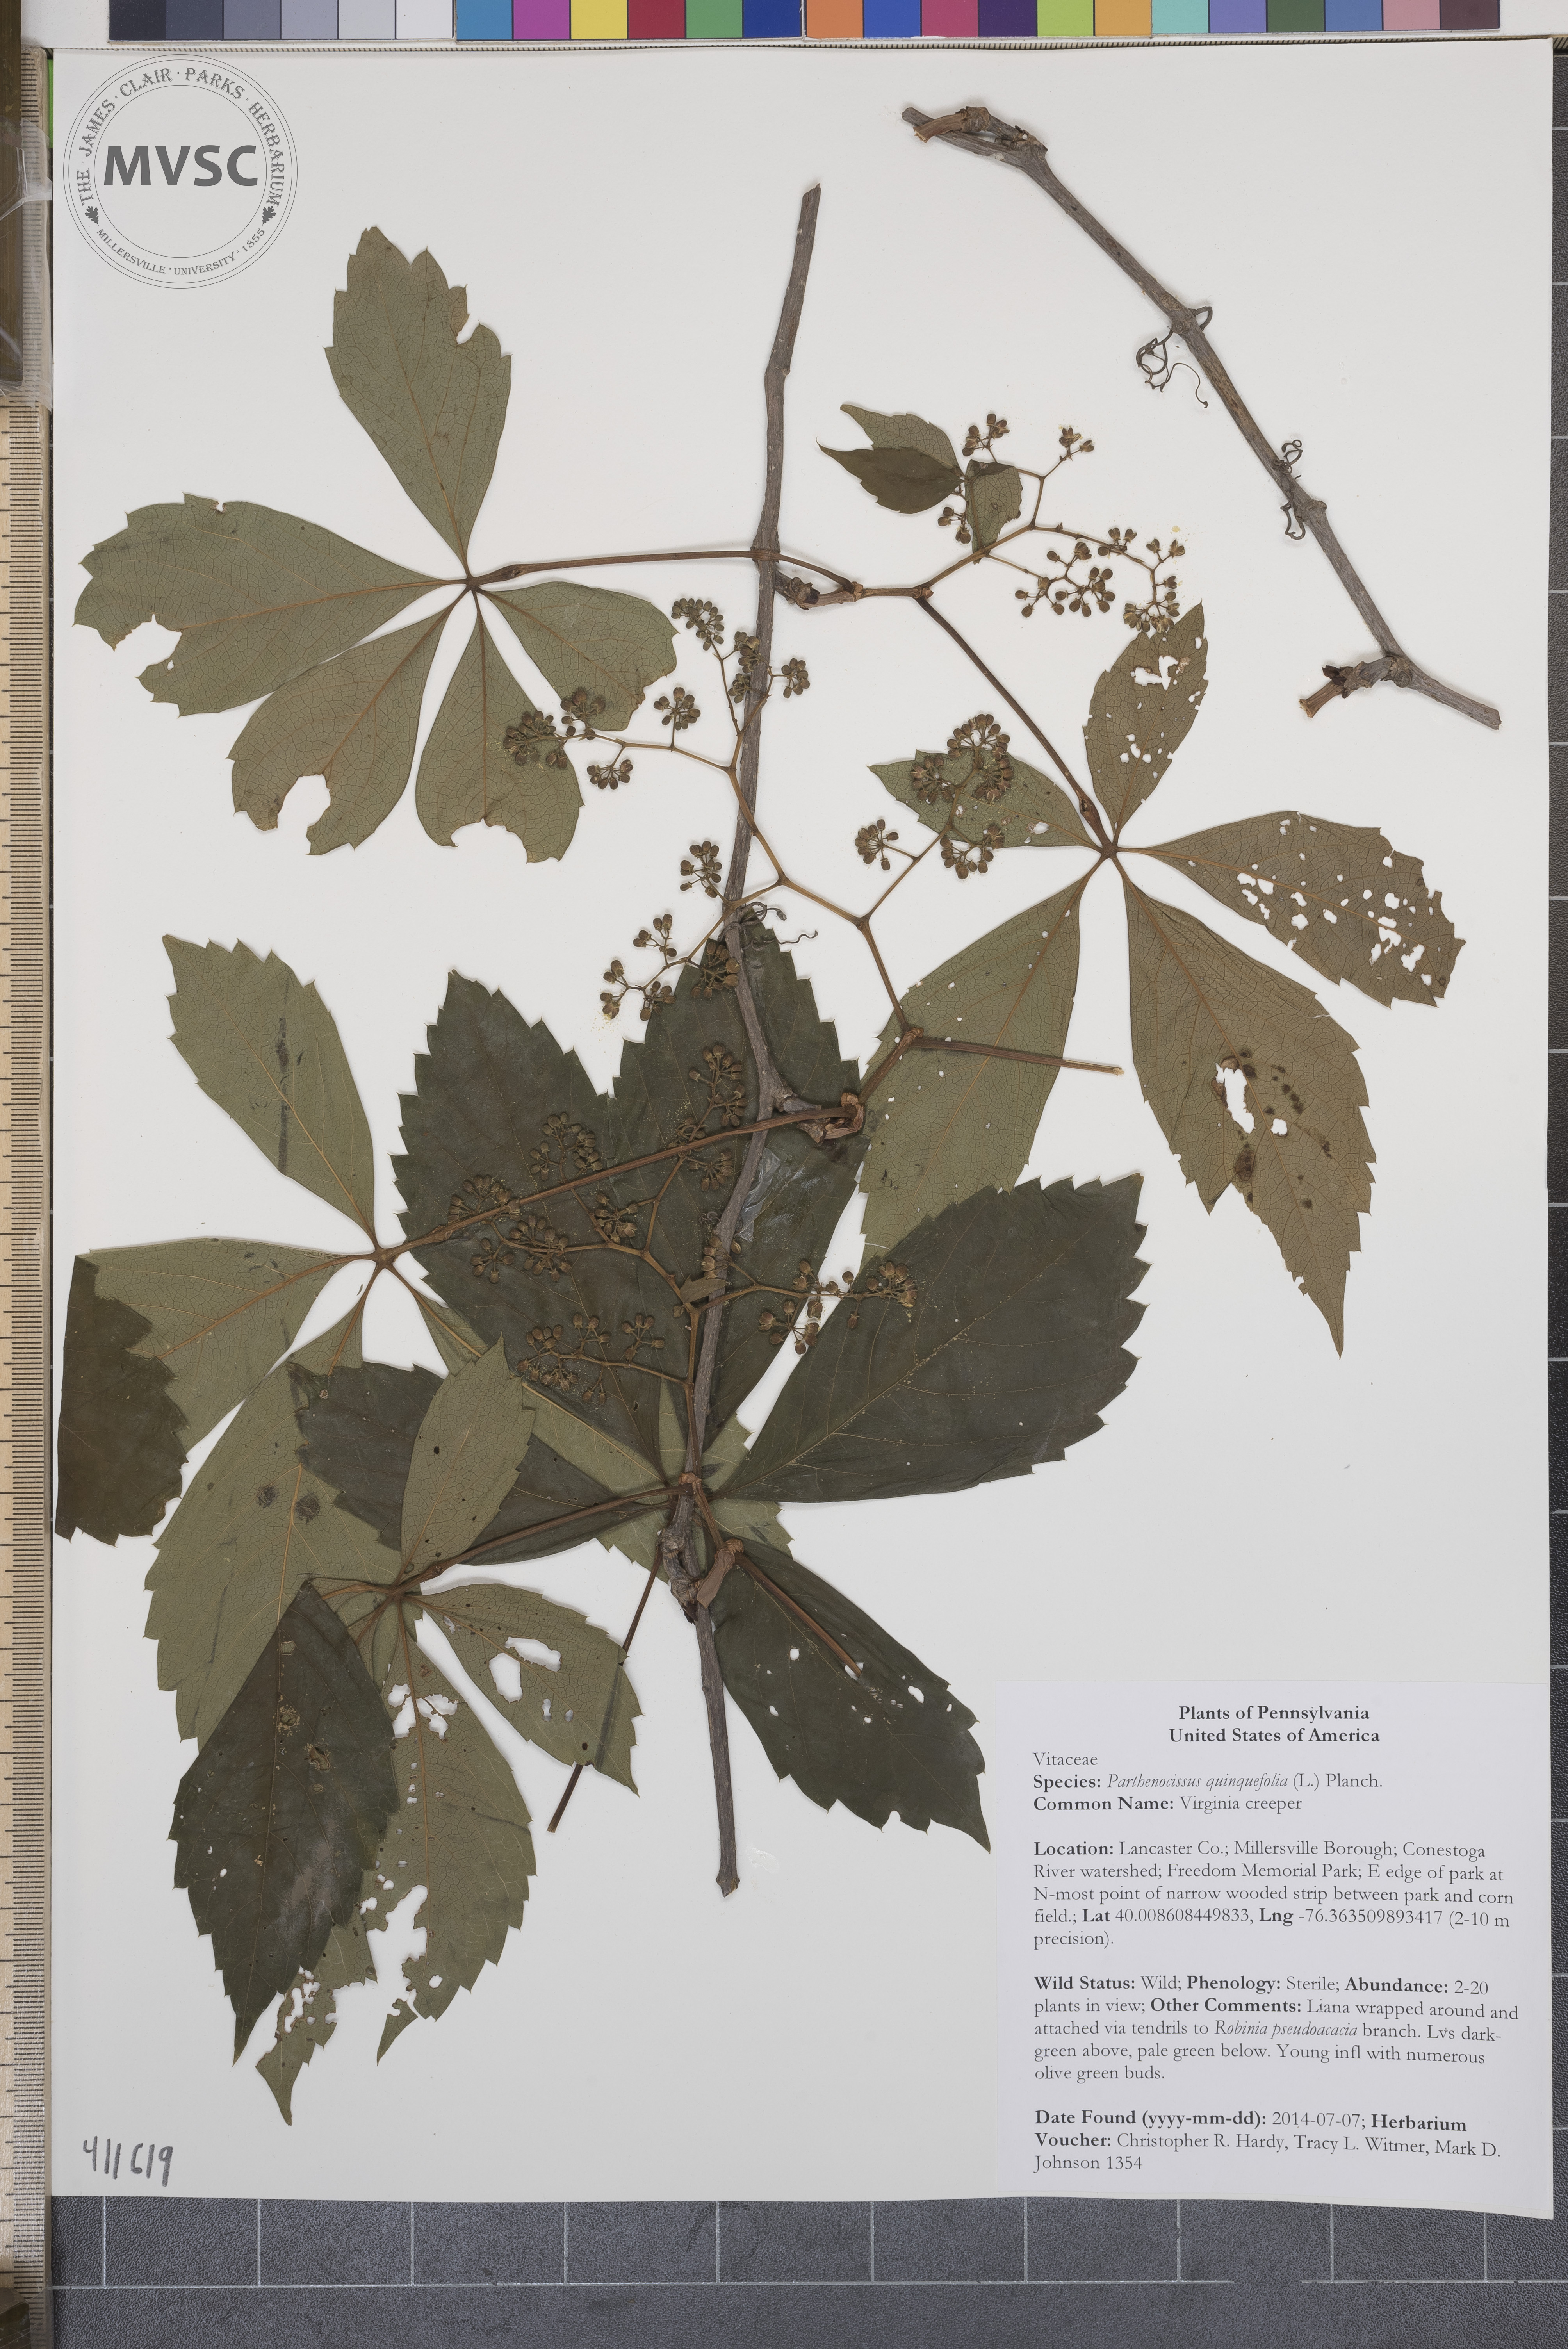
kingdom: Plantae
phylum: Tracheophyta
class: Magnoliopsida
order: Vitales
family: Vitaceae
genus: Parthenocissus
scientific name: Parthenocissus quinquefolia
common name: Virginia creeper
